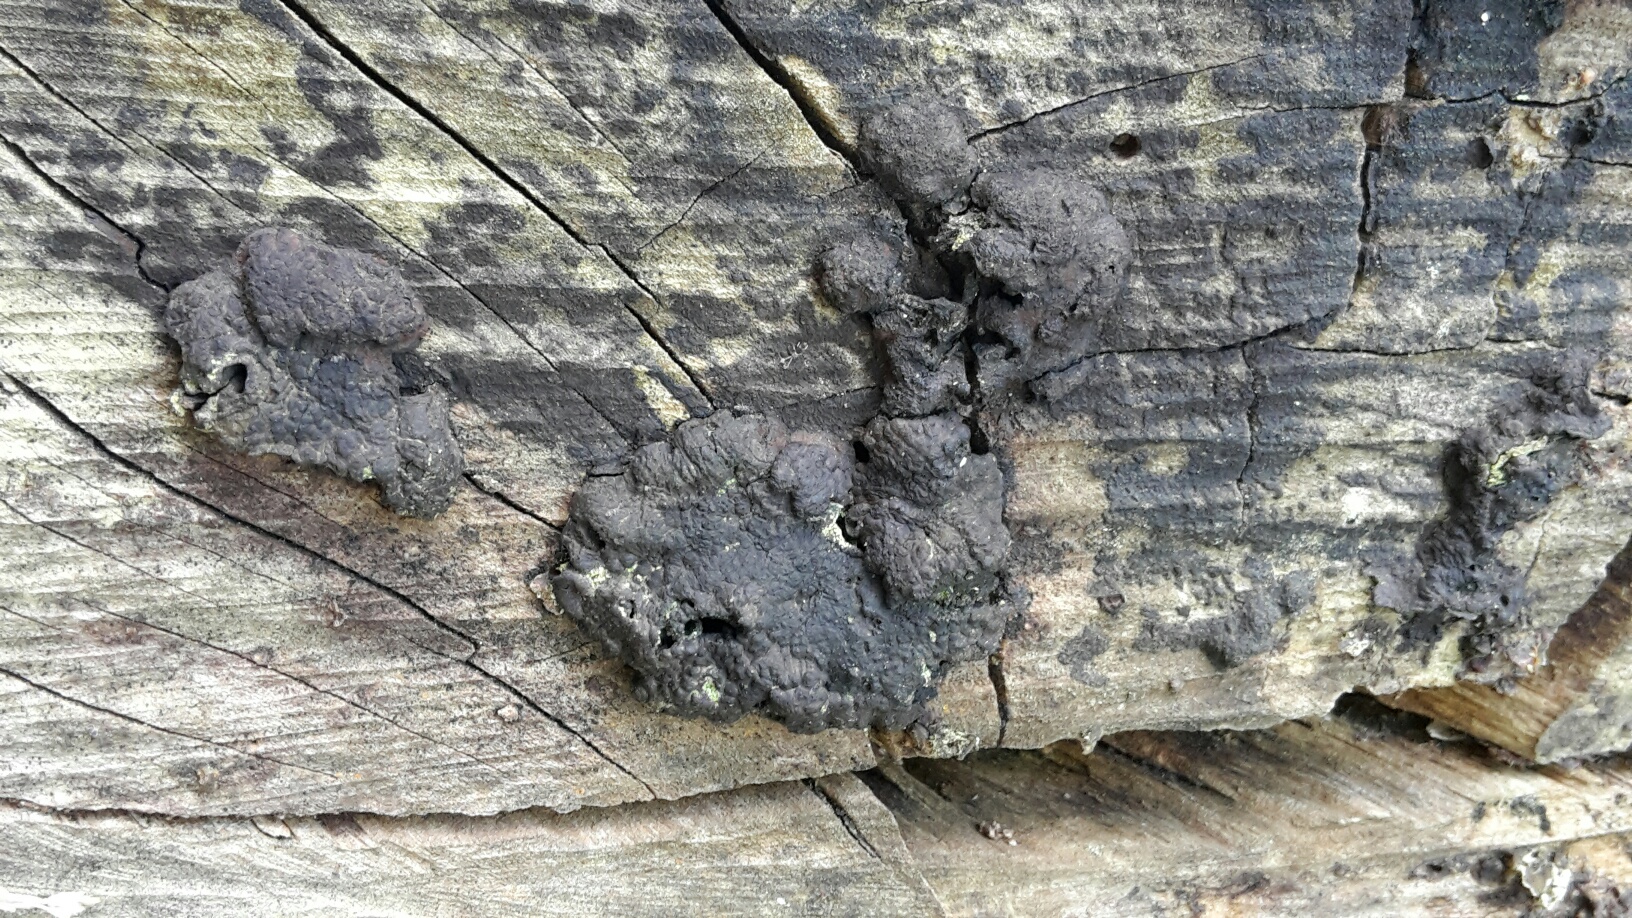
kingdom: Fungi
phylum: Ascomycota
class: Sordariomycetes
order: Xylariales
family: Hypoxylaceae
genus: Jackrogersella
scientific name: Jackrogersella multiformis
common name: foranderlig kulbær
